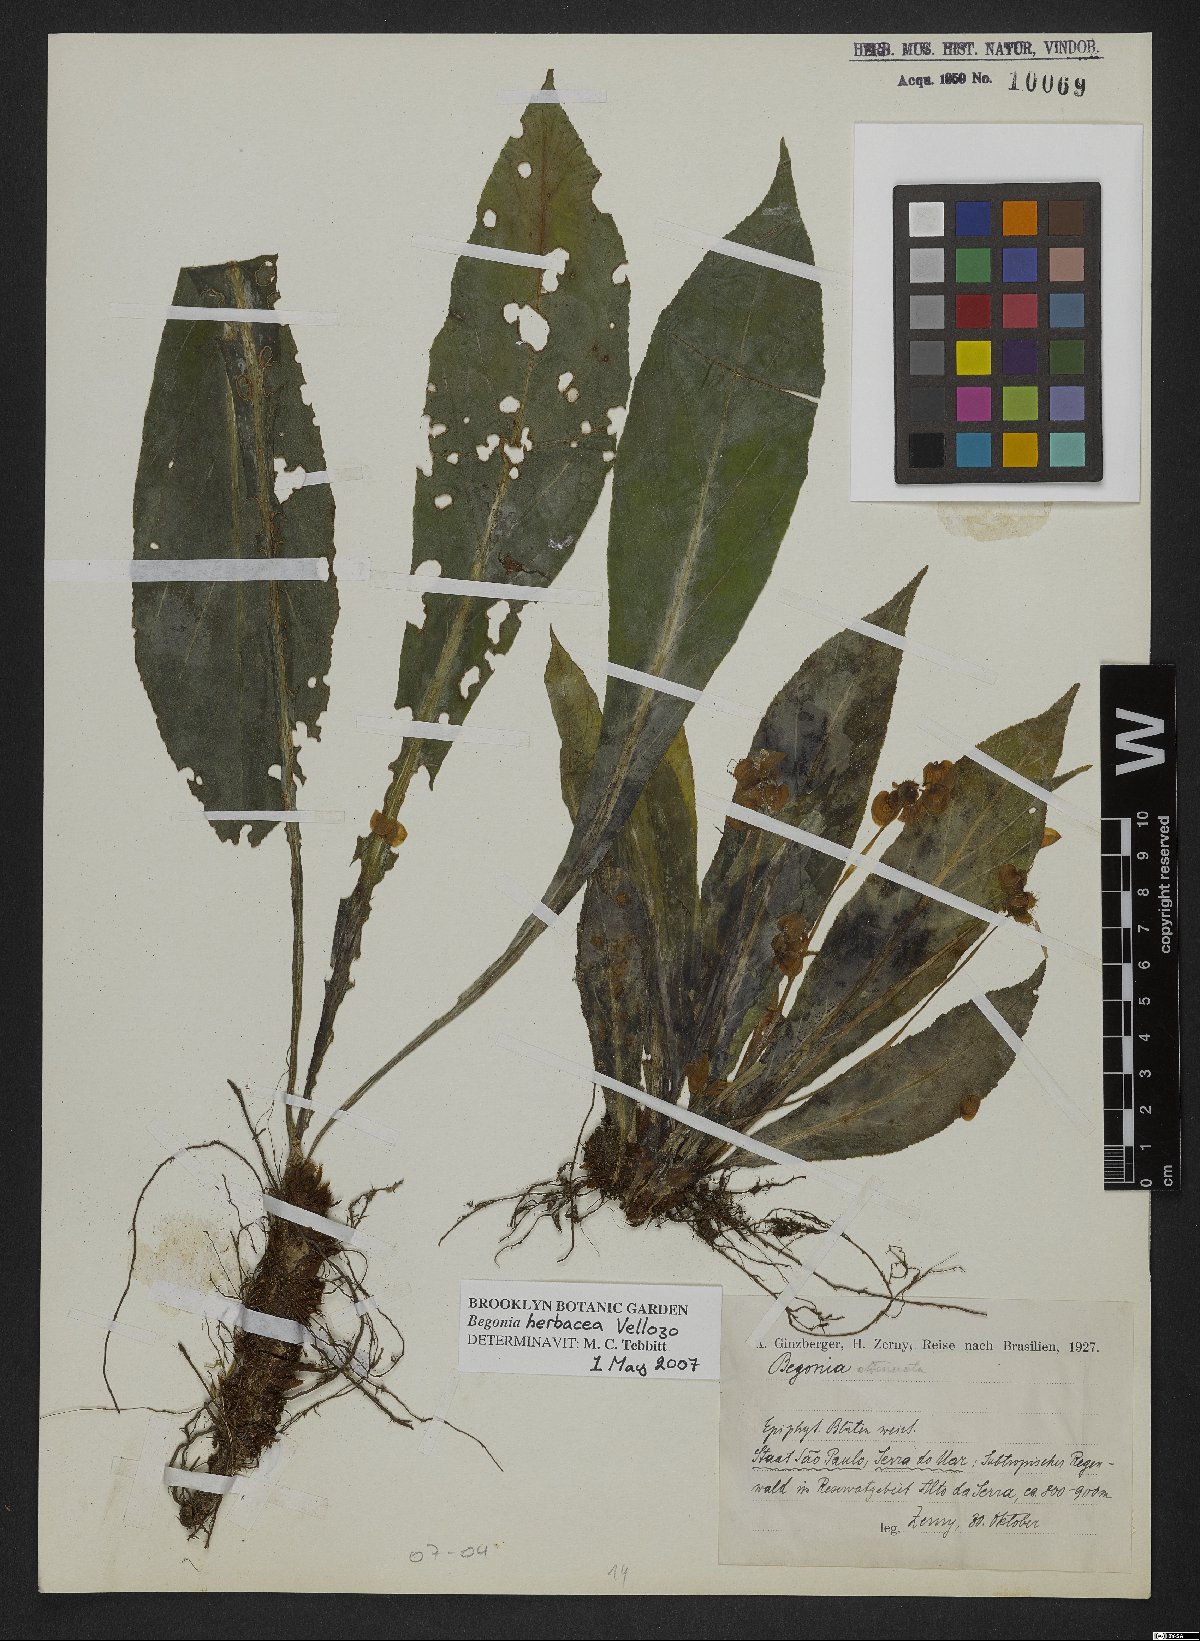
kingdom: Plantae
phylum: Tracheophyta
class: Magnoliopsida
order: Cucurbitales
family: Begoniaceae
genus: Begonia
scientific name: Begonia herbacea
